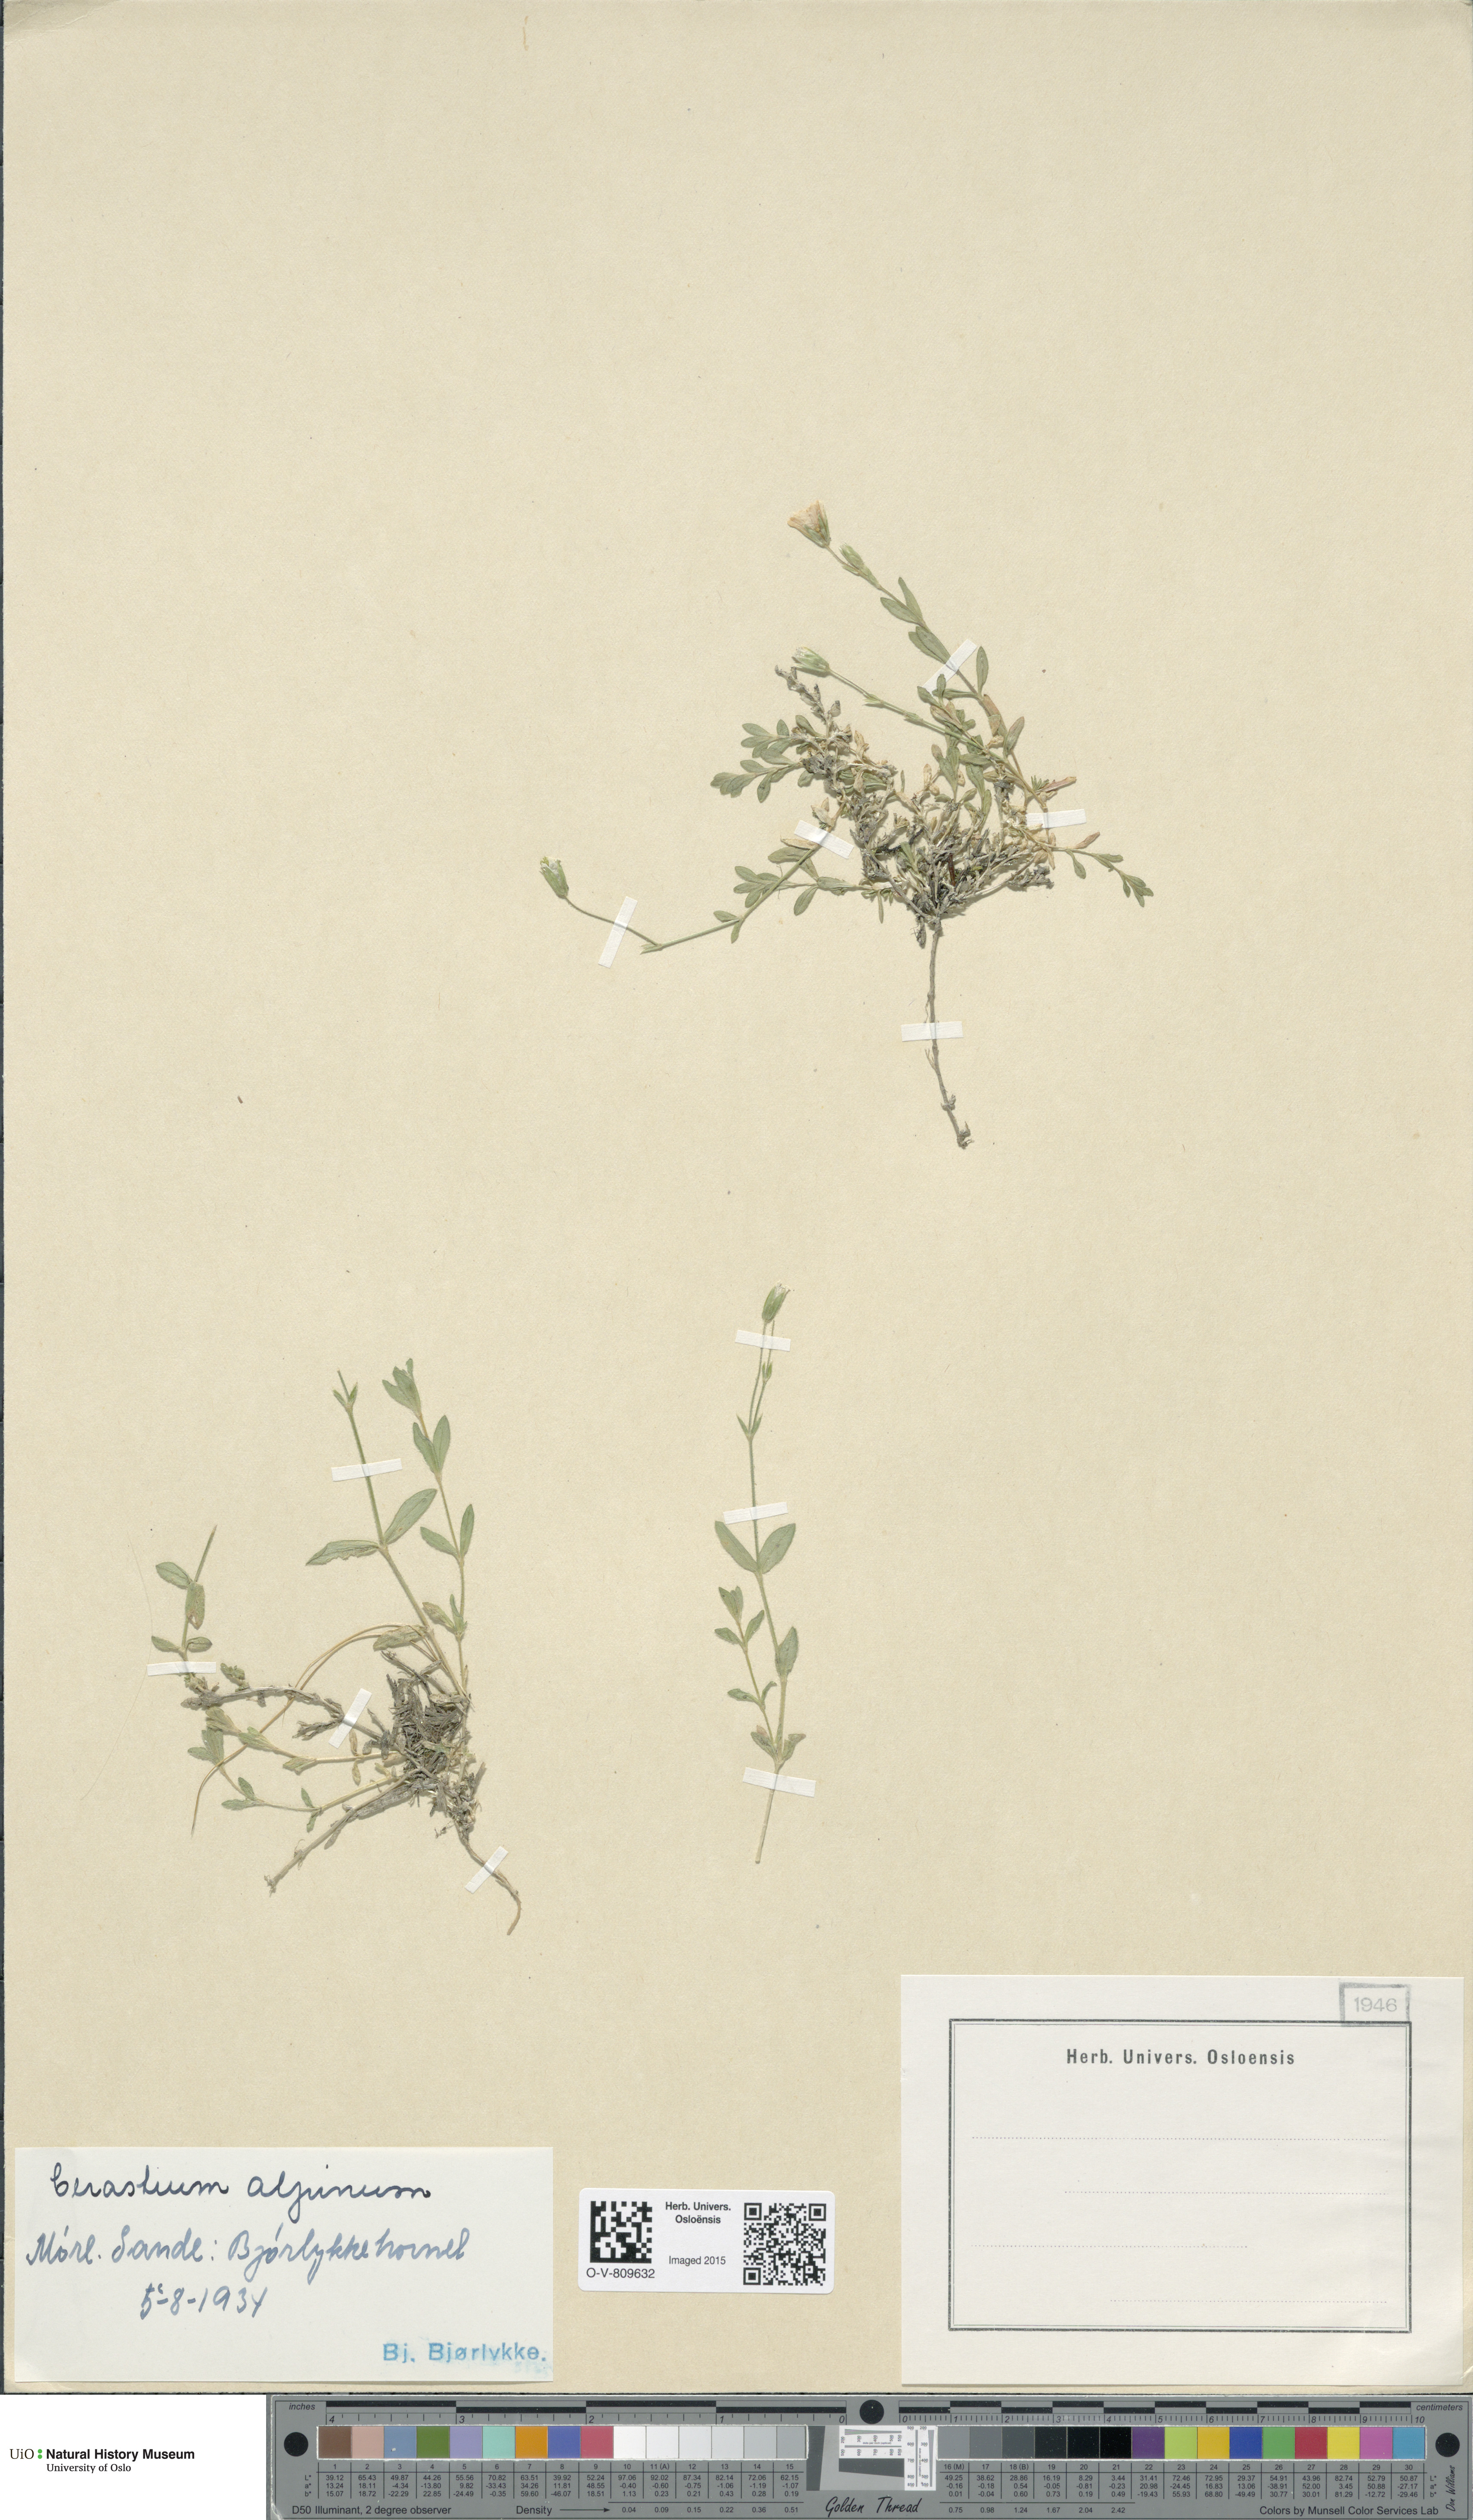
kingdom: Plantae
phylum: Tracheophyta
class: Magnoliopsida
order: Caryophyllales
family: Caryophyllaceae
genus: Cerastium
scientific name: Cerastium alpinum
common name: Alpine mouse-ear
